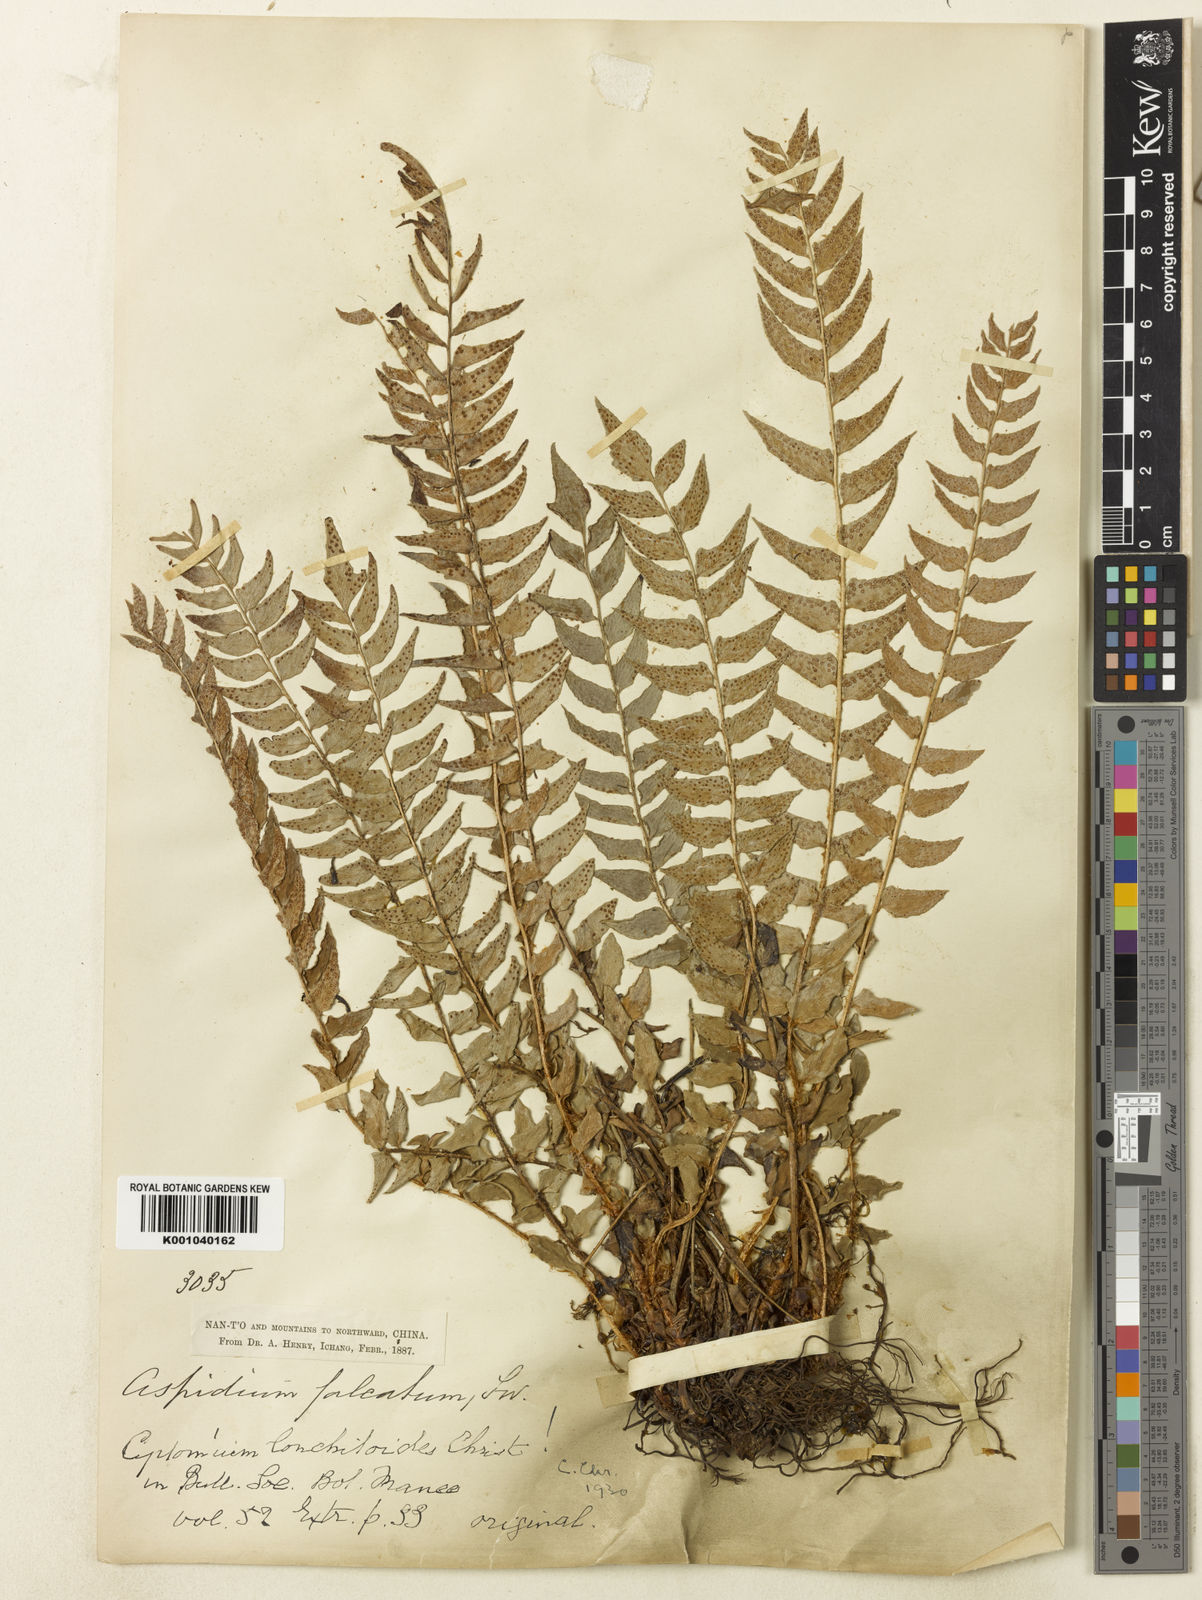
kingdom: Plantae
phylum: Tracheophyta
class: Polypodiopsida
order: Polypodiales
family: Dryopteridaceae
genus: Cyrtomium
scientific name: Cyrtomium lonchitoides
